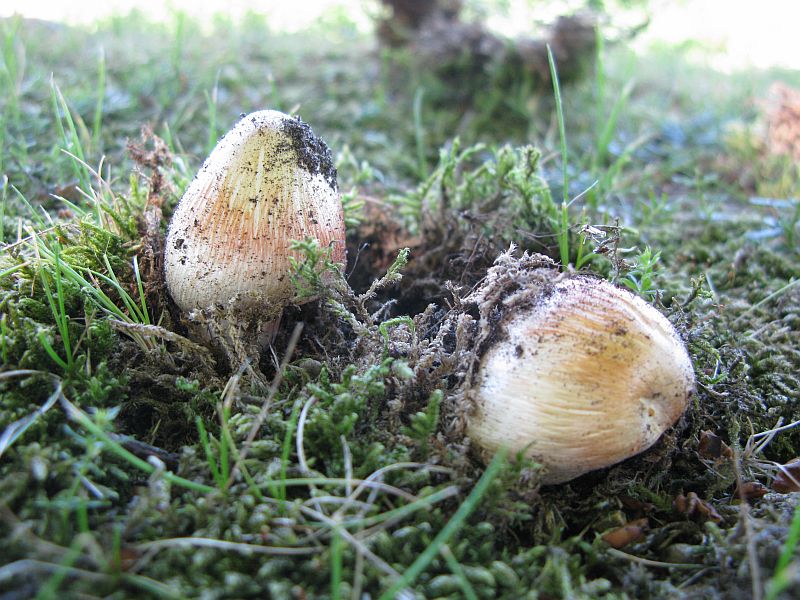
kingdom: Fungi
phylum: Basidiomycota
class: Agaricomycetes
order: Agaricales
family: Inocybaceae
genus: Inosperma
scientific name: Inosperma erubescens
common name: giftig trævlhat
